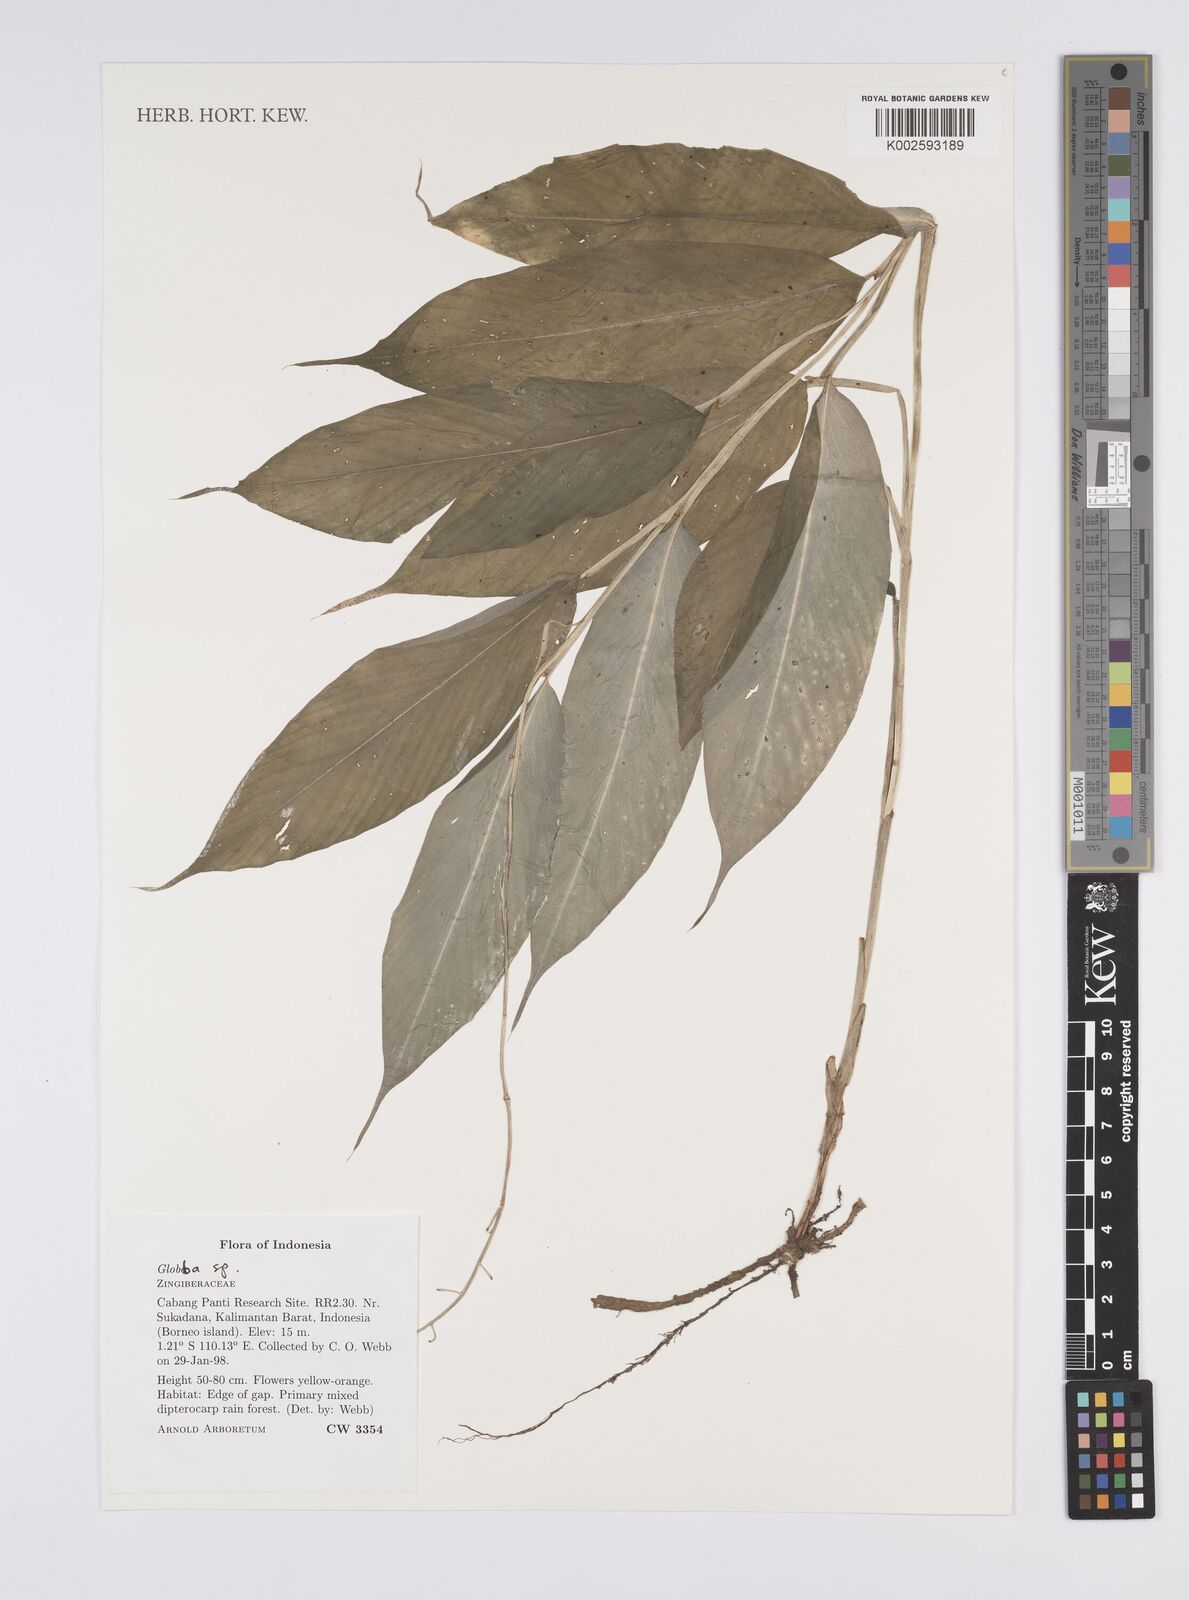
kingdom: Plantae
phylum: Tracheophyta
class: Liliopsida
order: Zingiberales
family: Zingiberaceae
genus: Globba
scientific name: Globba
